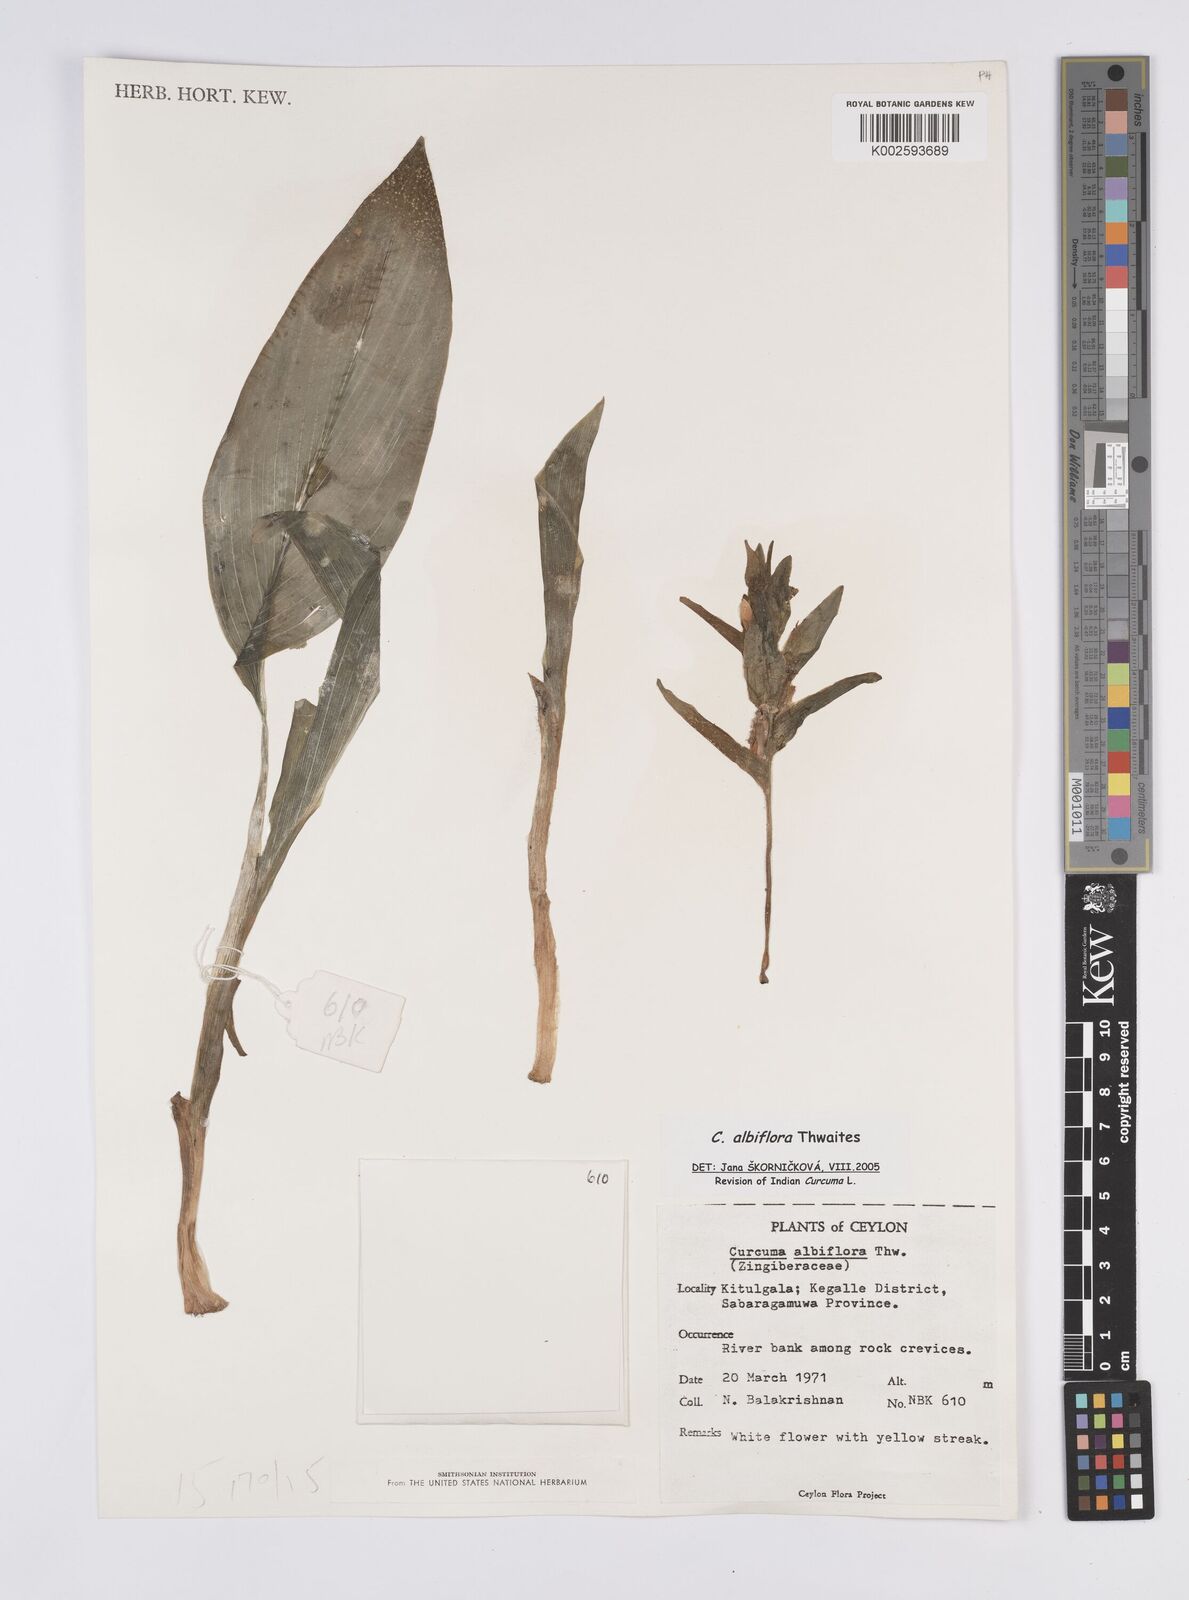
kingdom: Plantae
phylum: Tracheophyta
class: Liliopsida
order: Zingiberales
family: Zingiberaceae
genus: Curcuma
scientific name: Curcuma albiflora
